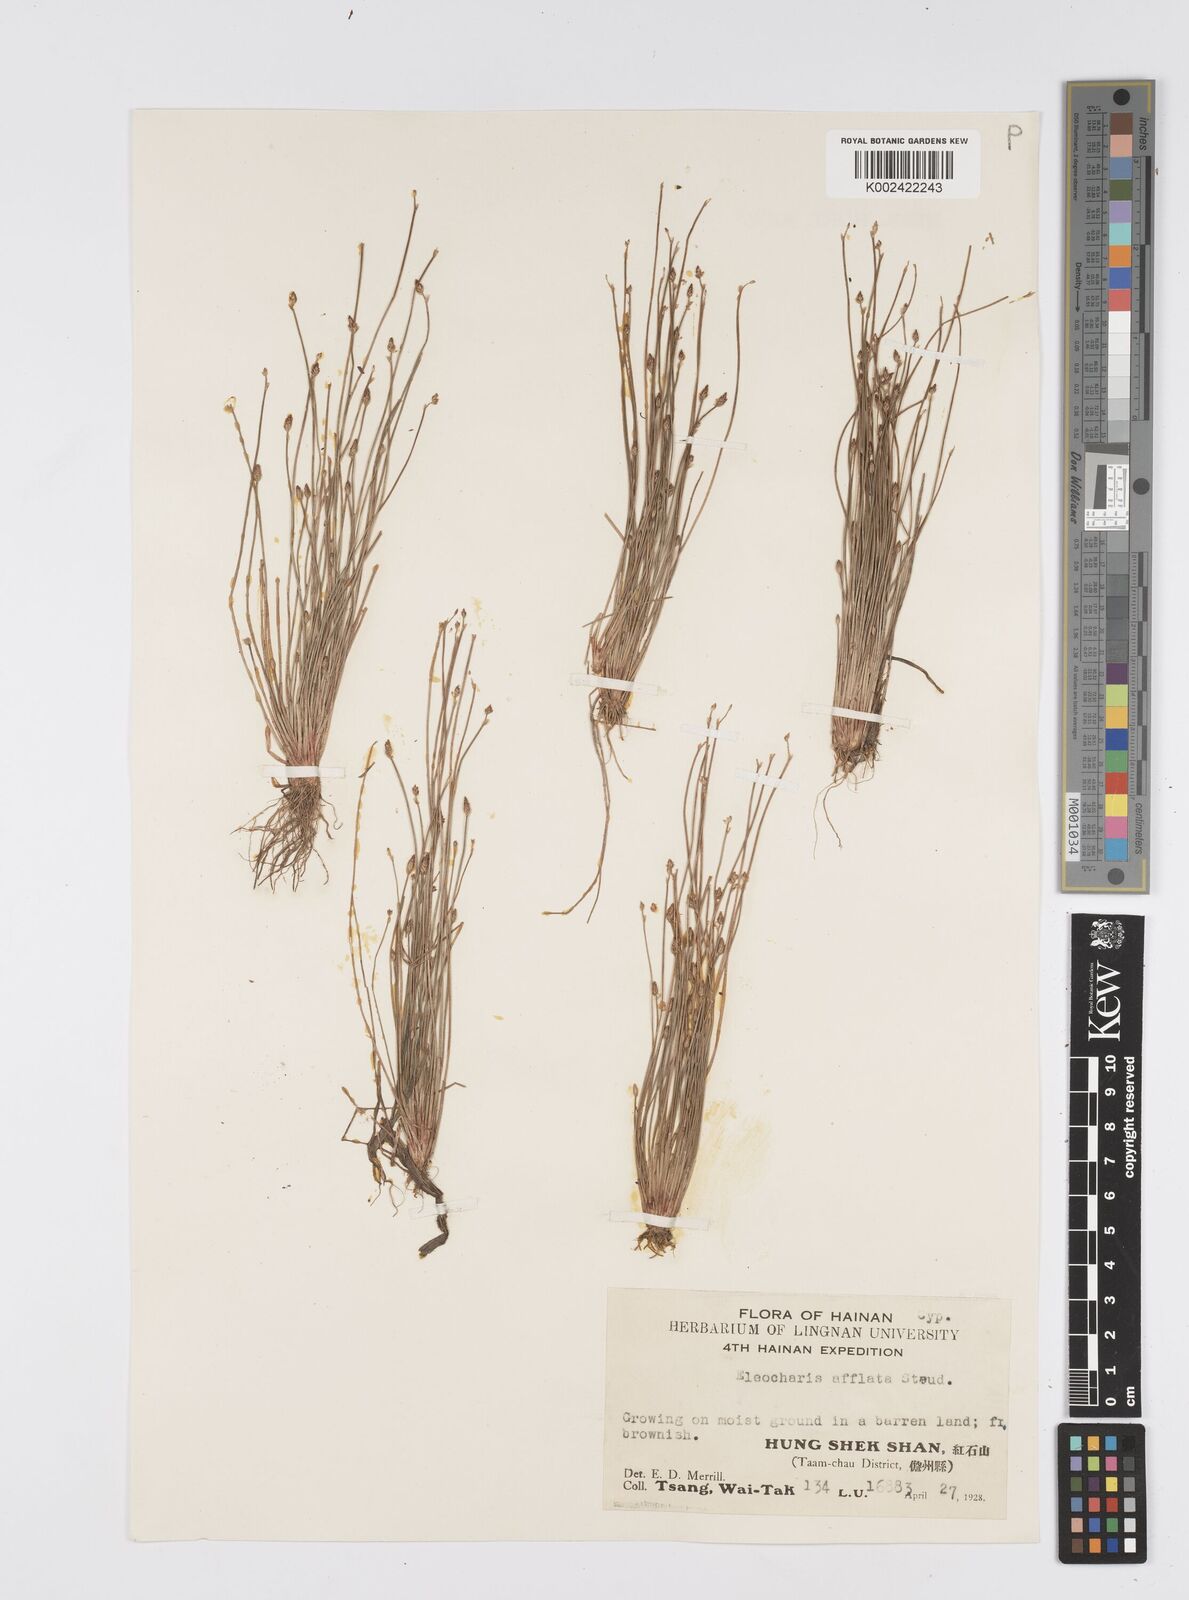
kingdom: Plantae
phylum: Tracheophyta
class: Liliopsida
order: Poales
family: Cyperaceae
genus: Eleocharis
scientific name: Eleocharis pellucida
